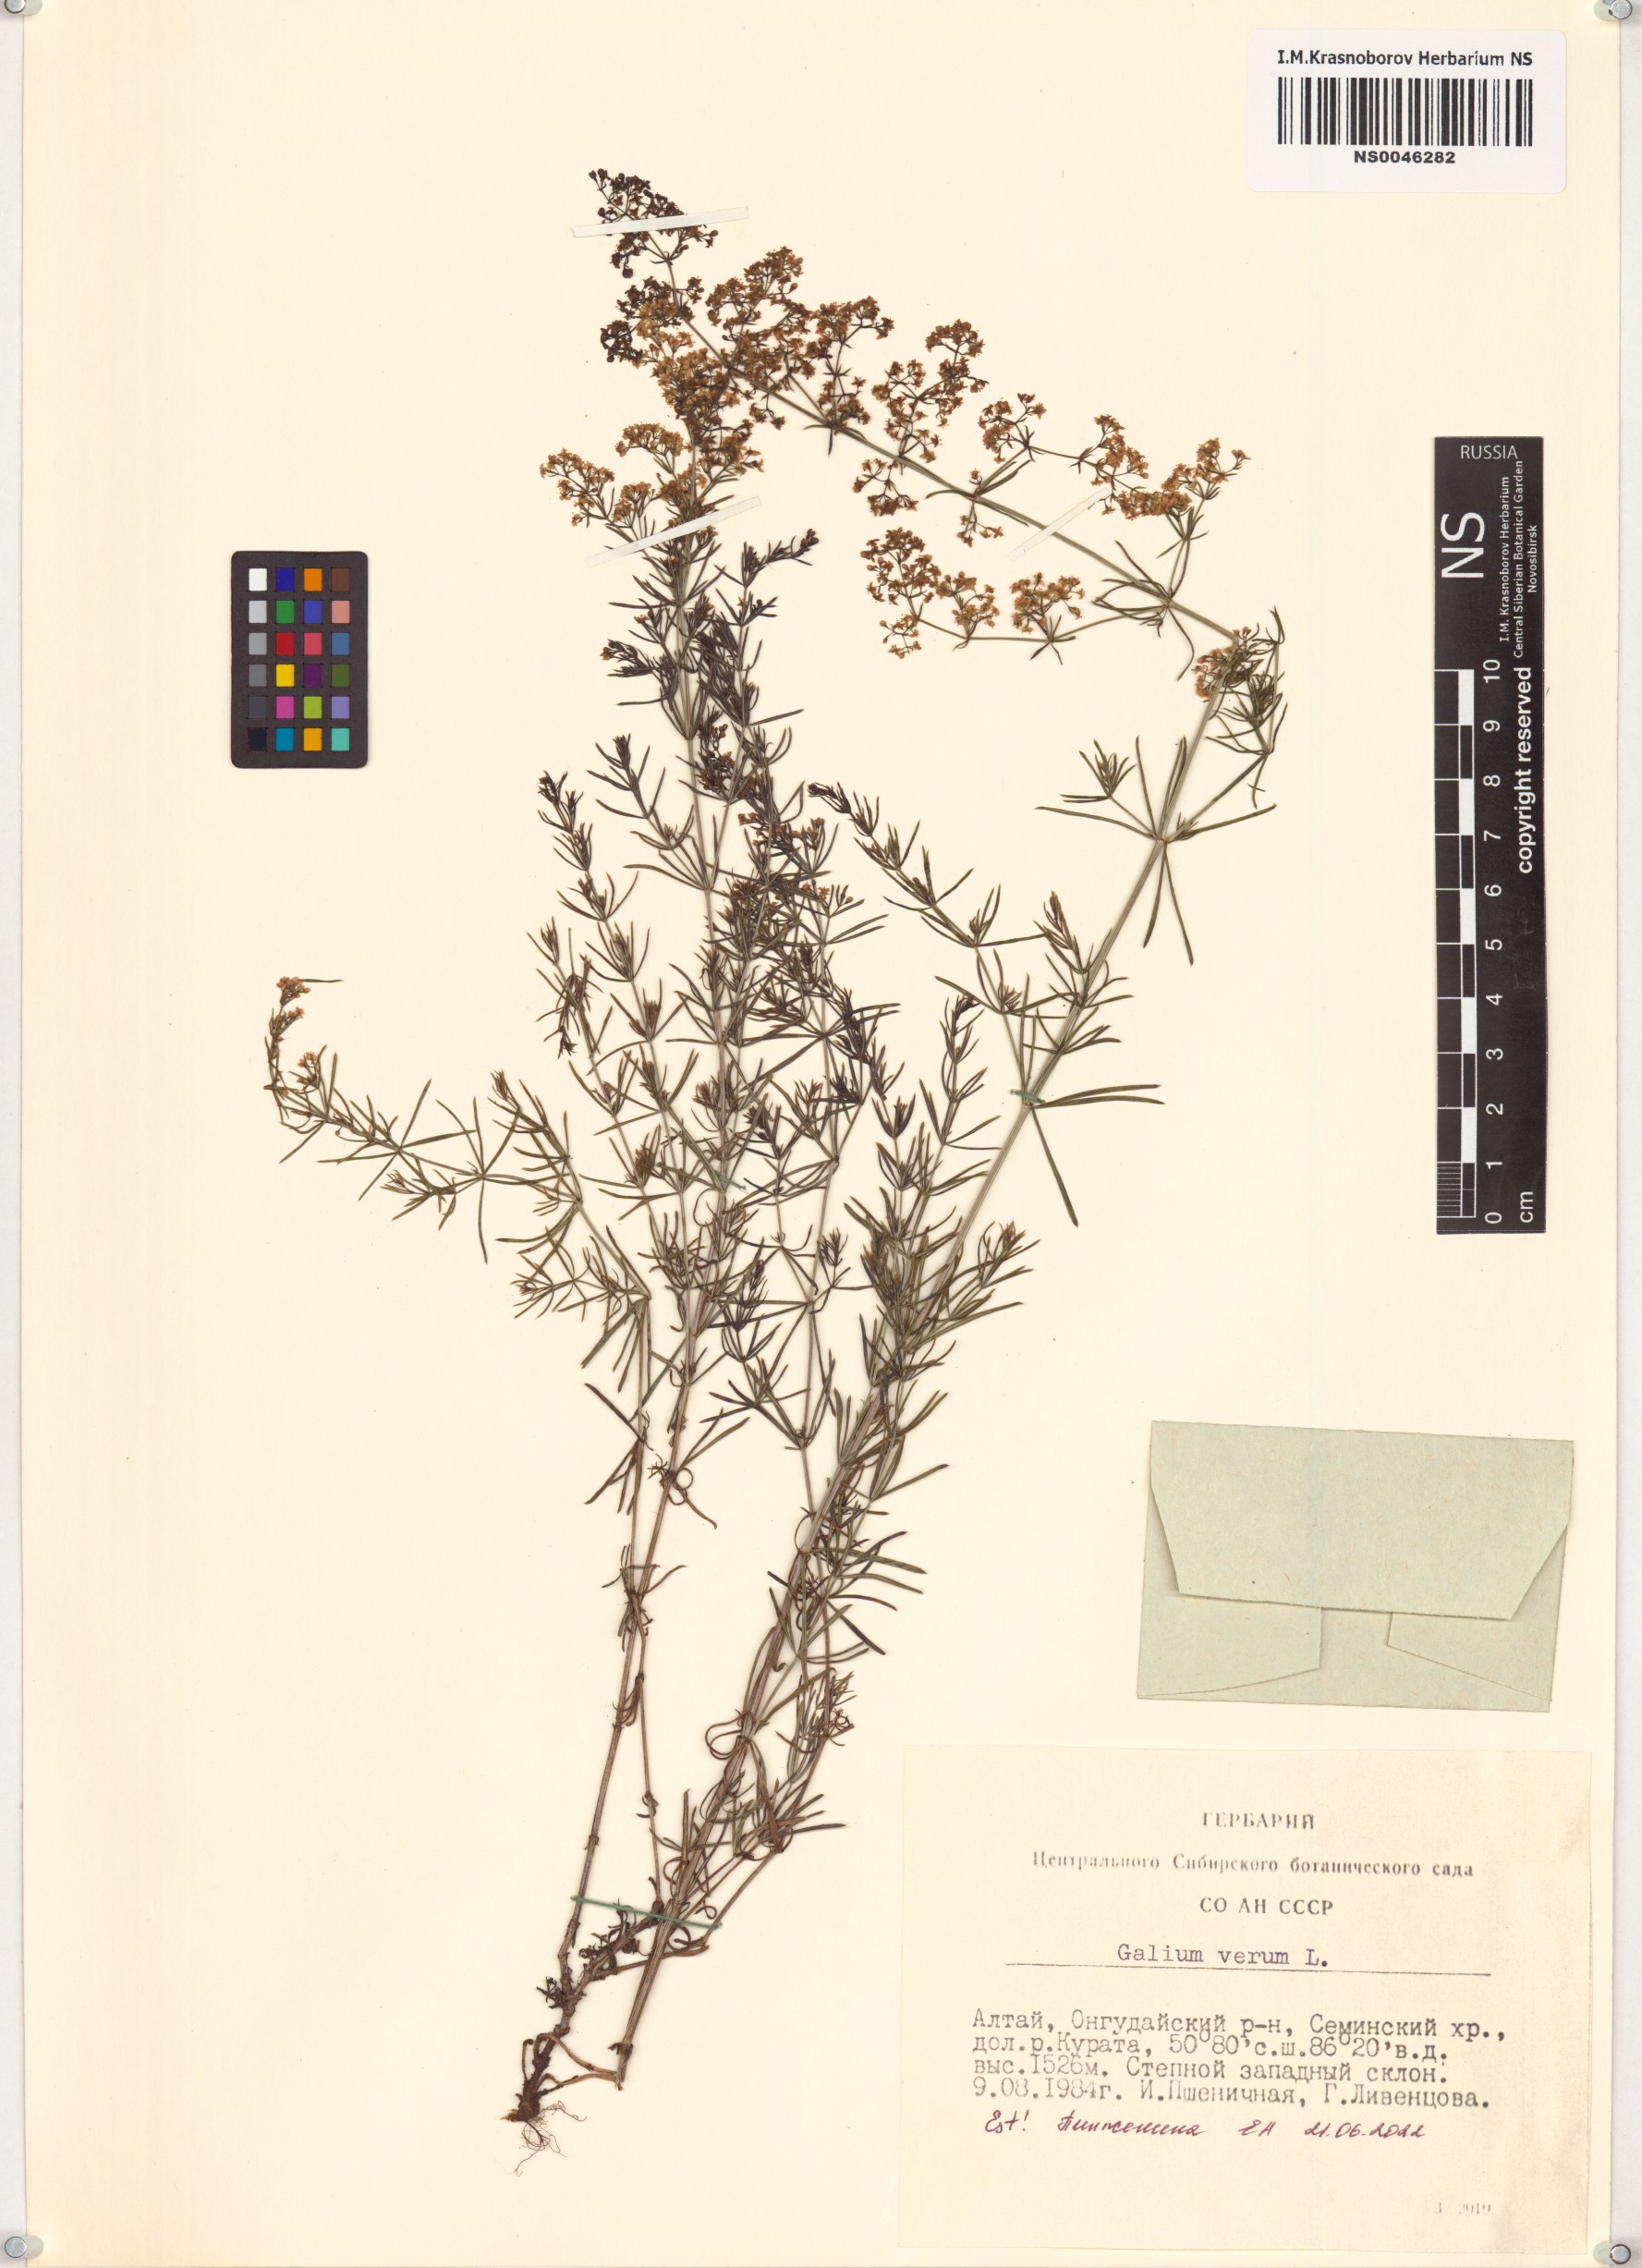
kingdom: Plantae
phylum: Tracheophyta
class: Magnoliopsida
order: Gentianales
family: Rubiaceae
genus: Galium
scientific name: Galium verum
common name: Lady's bedstraw
